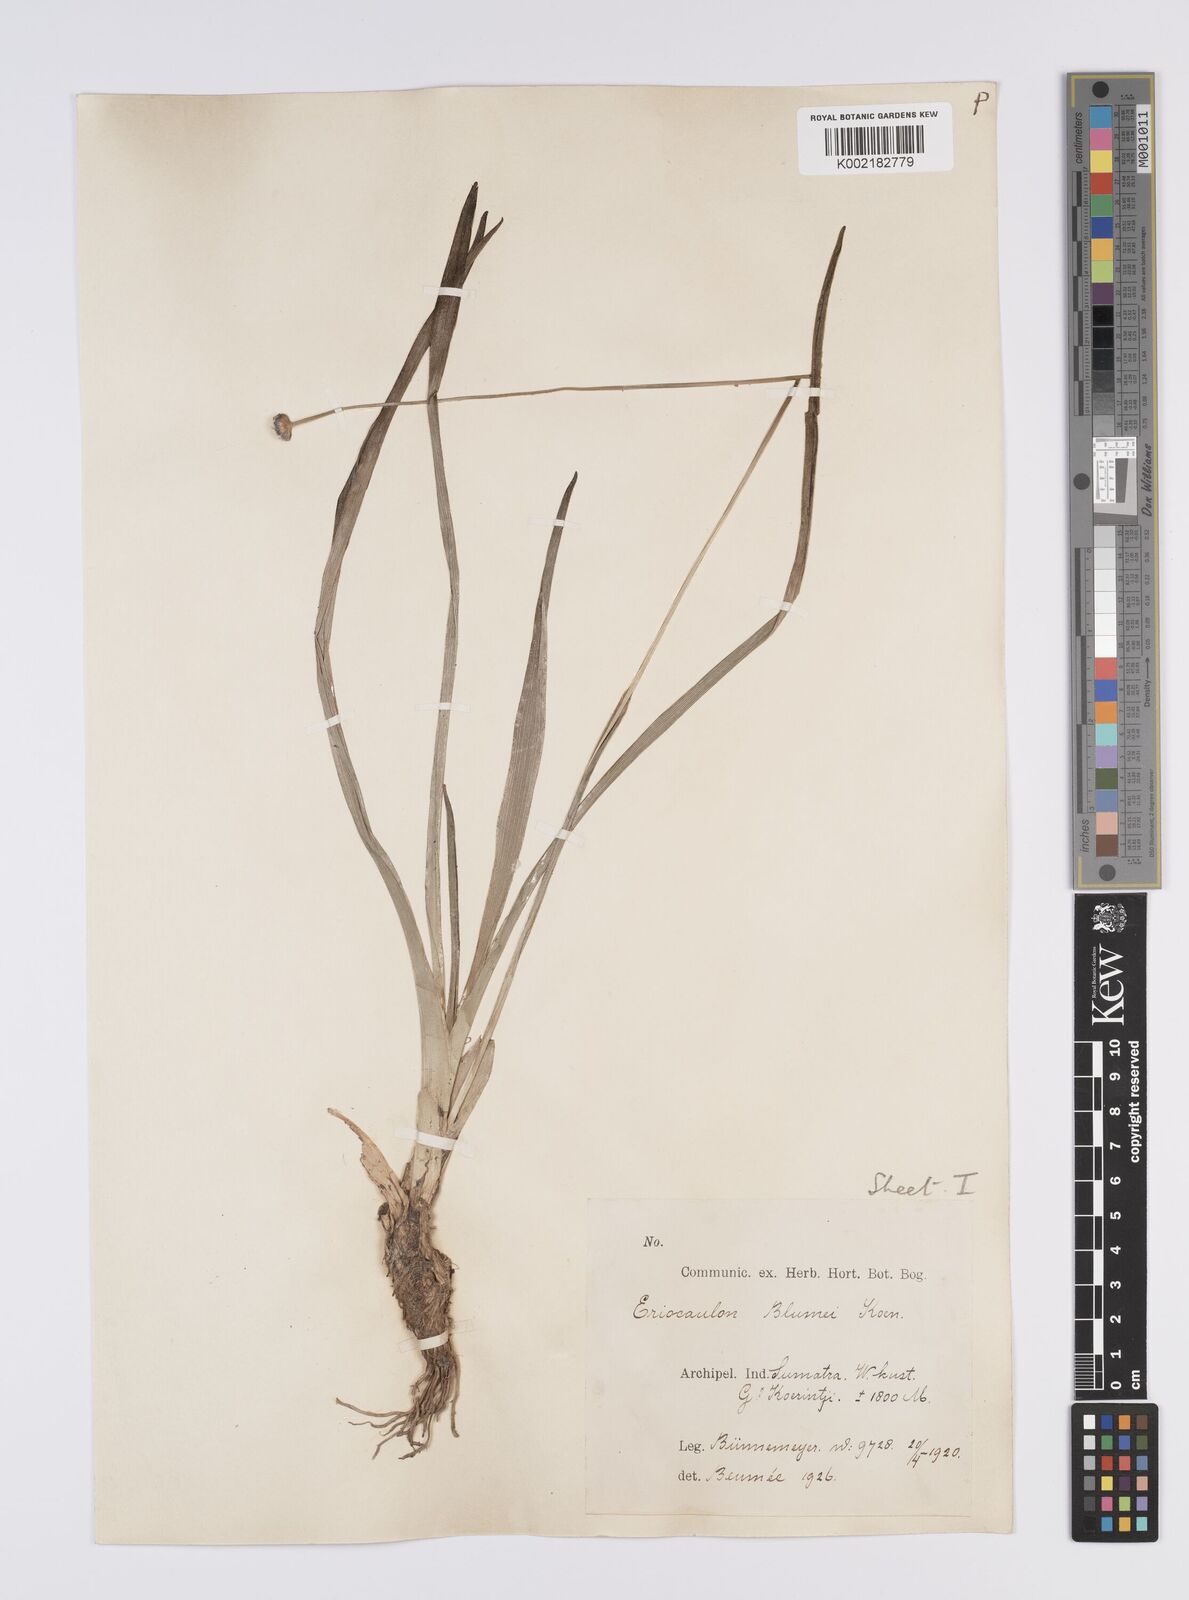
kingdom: Plantae
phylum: Tracheophyta
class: Liliopsida
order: Poales
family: Eriocaulaceae
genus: Eriocaulon
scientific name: Eriocaulon brownianum
